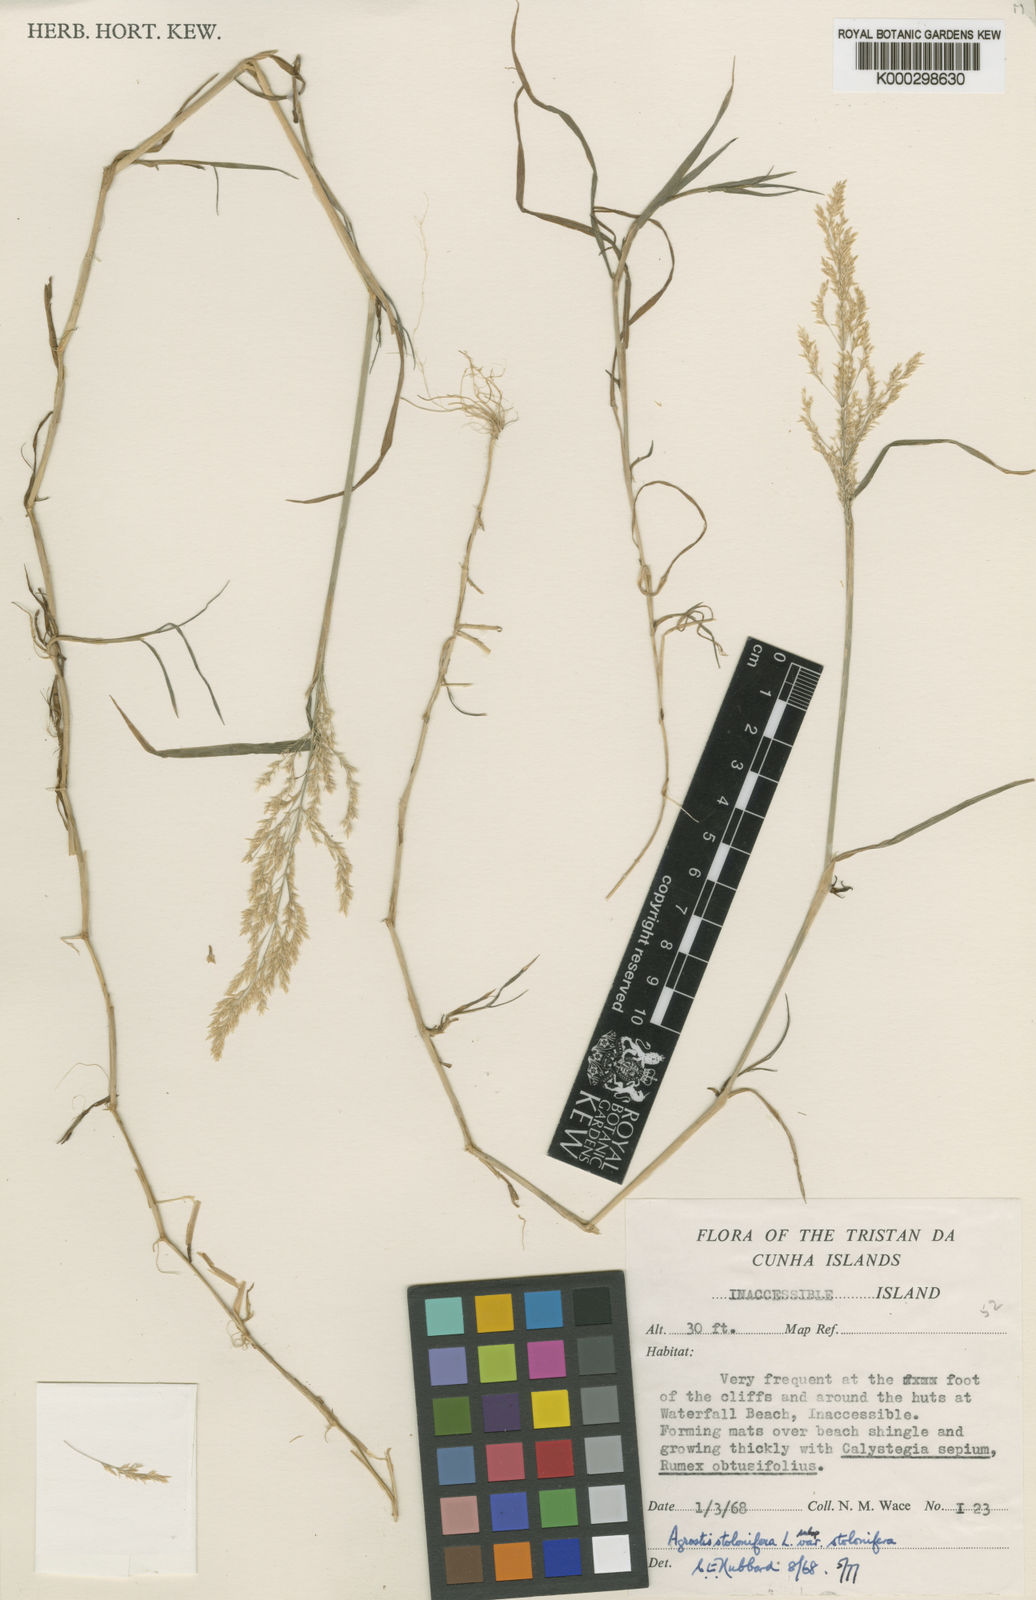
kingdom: Plantae
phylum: Tracheophyta
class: Liliopsida
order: Poales
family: Poaceae
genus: Agrostis
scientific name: Agrostis stolonifera
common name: Creeping bentgrass
